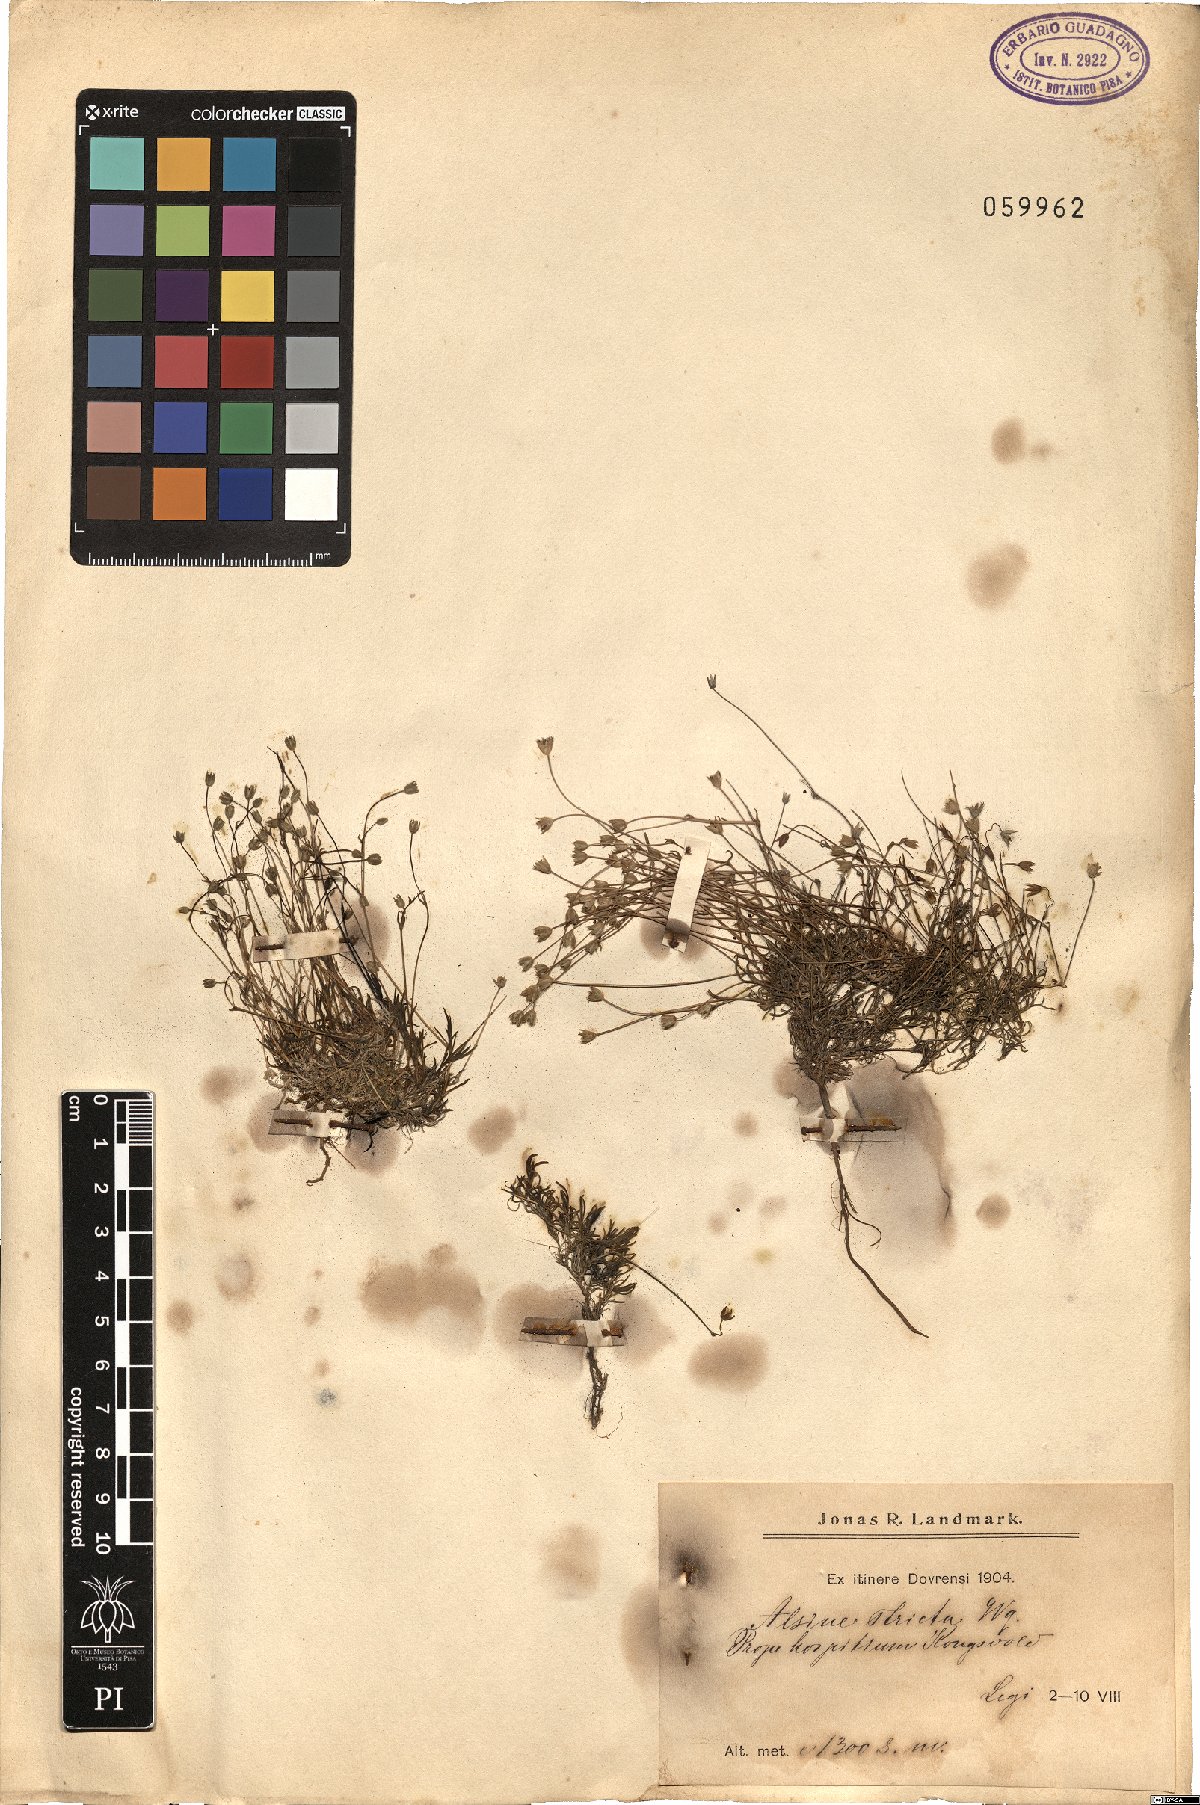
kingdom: Plantae
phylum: Tracheophyta
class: Magnoliopsida
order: Caryophyllales
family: Caryophyllaceae
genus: Stellaria
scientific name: Stellaria longipes
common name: Goldie's starwort
